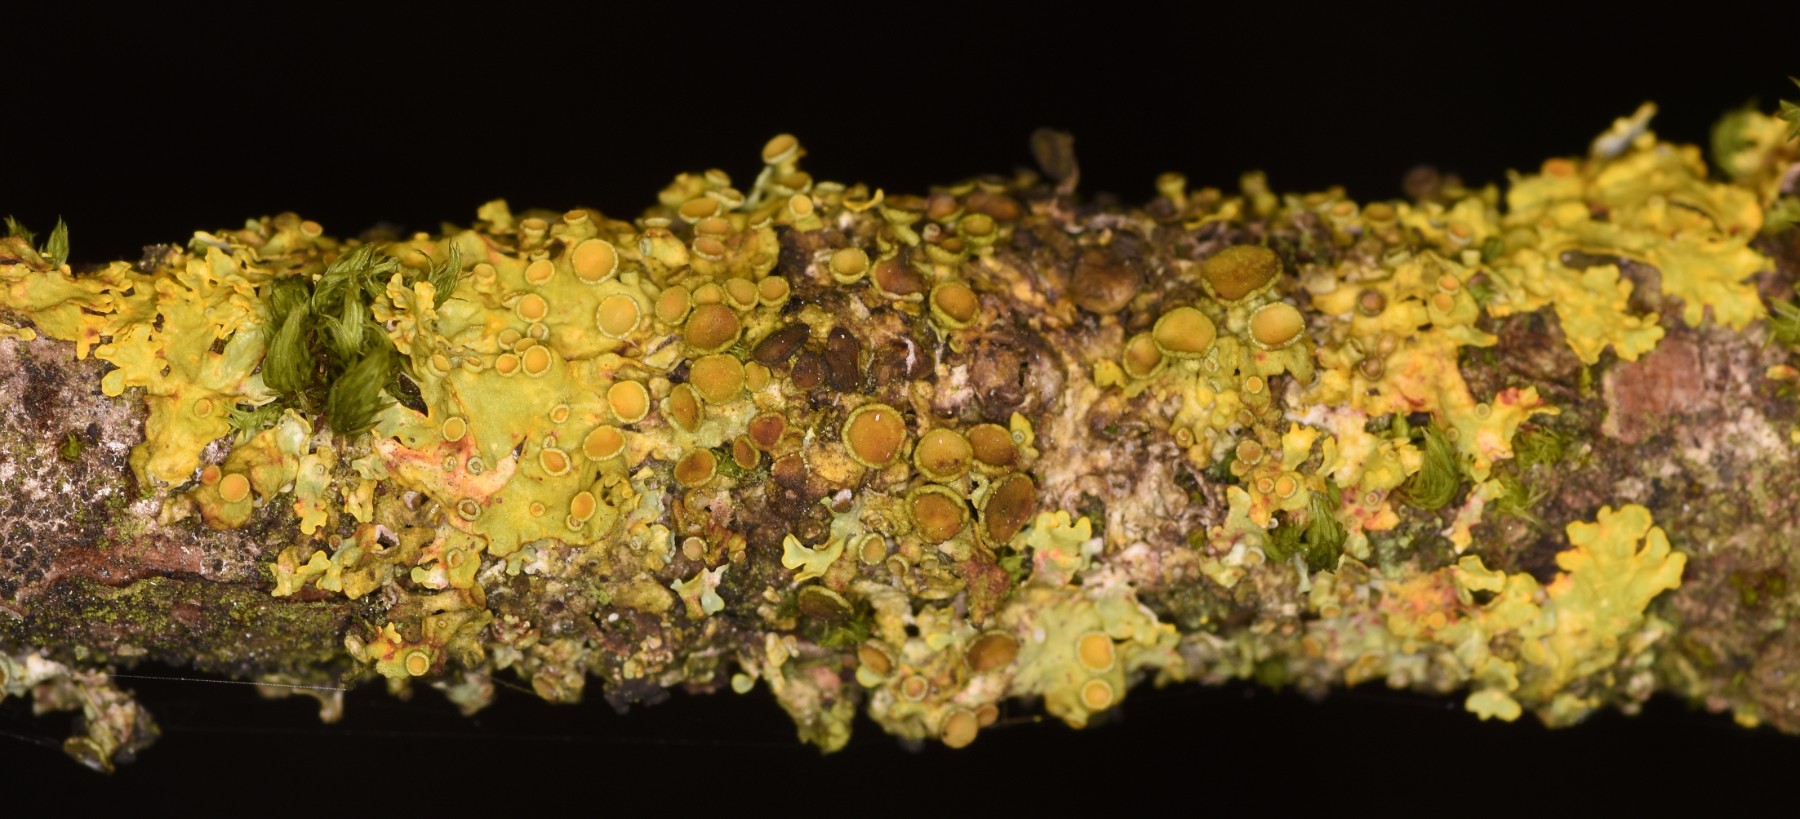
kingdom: Fungi
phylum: Ascomycota
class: Lecanoromycetes
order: Teloschistales
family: Teloschistaceae
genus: Xanthoria
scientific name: Xanthoria parietina
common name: almindelig væggelav
